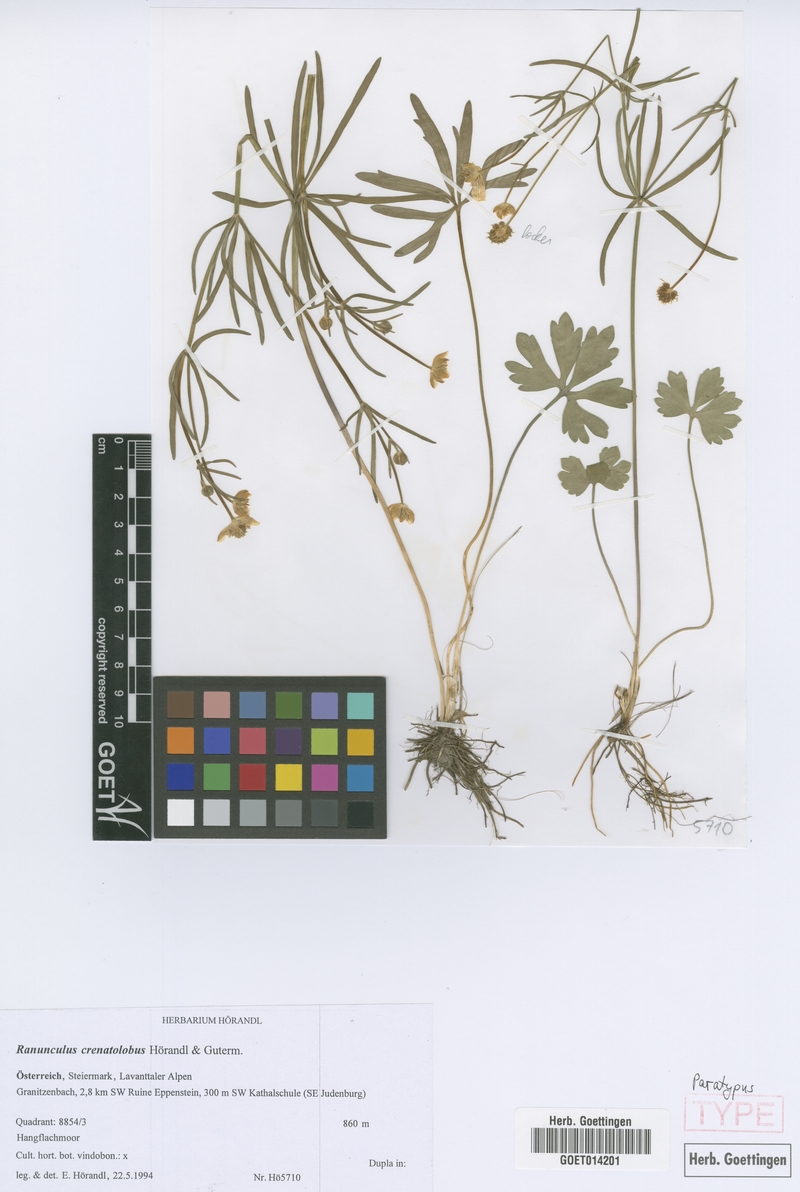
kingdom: Plantae
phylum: Tracheophyta
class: Magnoliopsida
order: Ranunculales
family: Ranunculaceae
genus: Ranunculus
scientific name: Ranunculus crenatolobus
